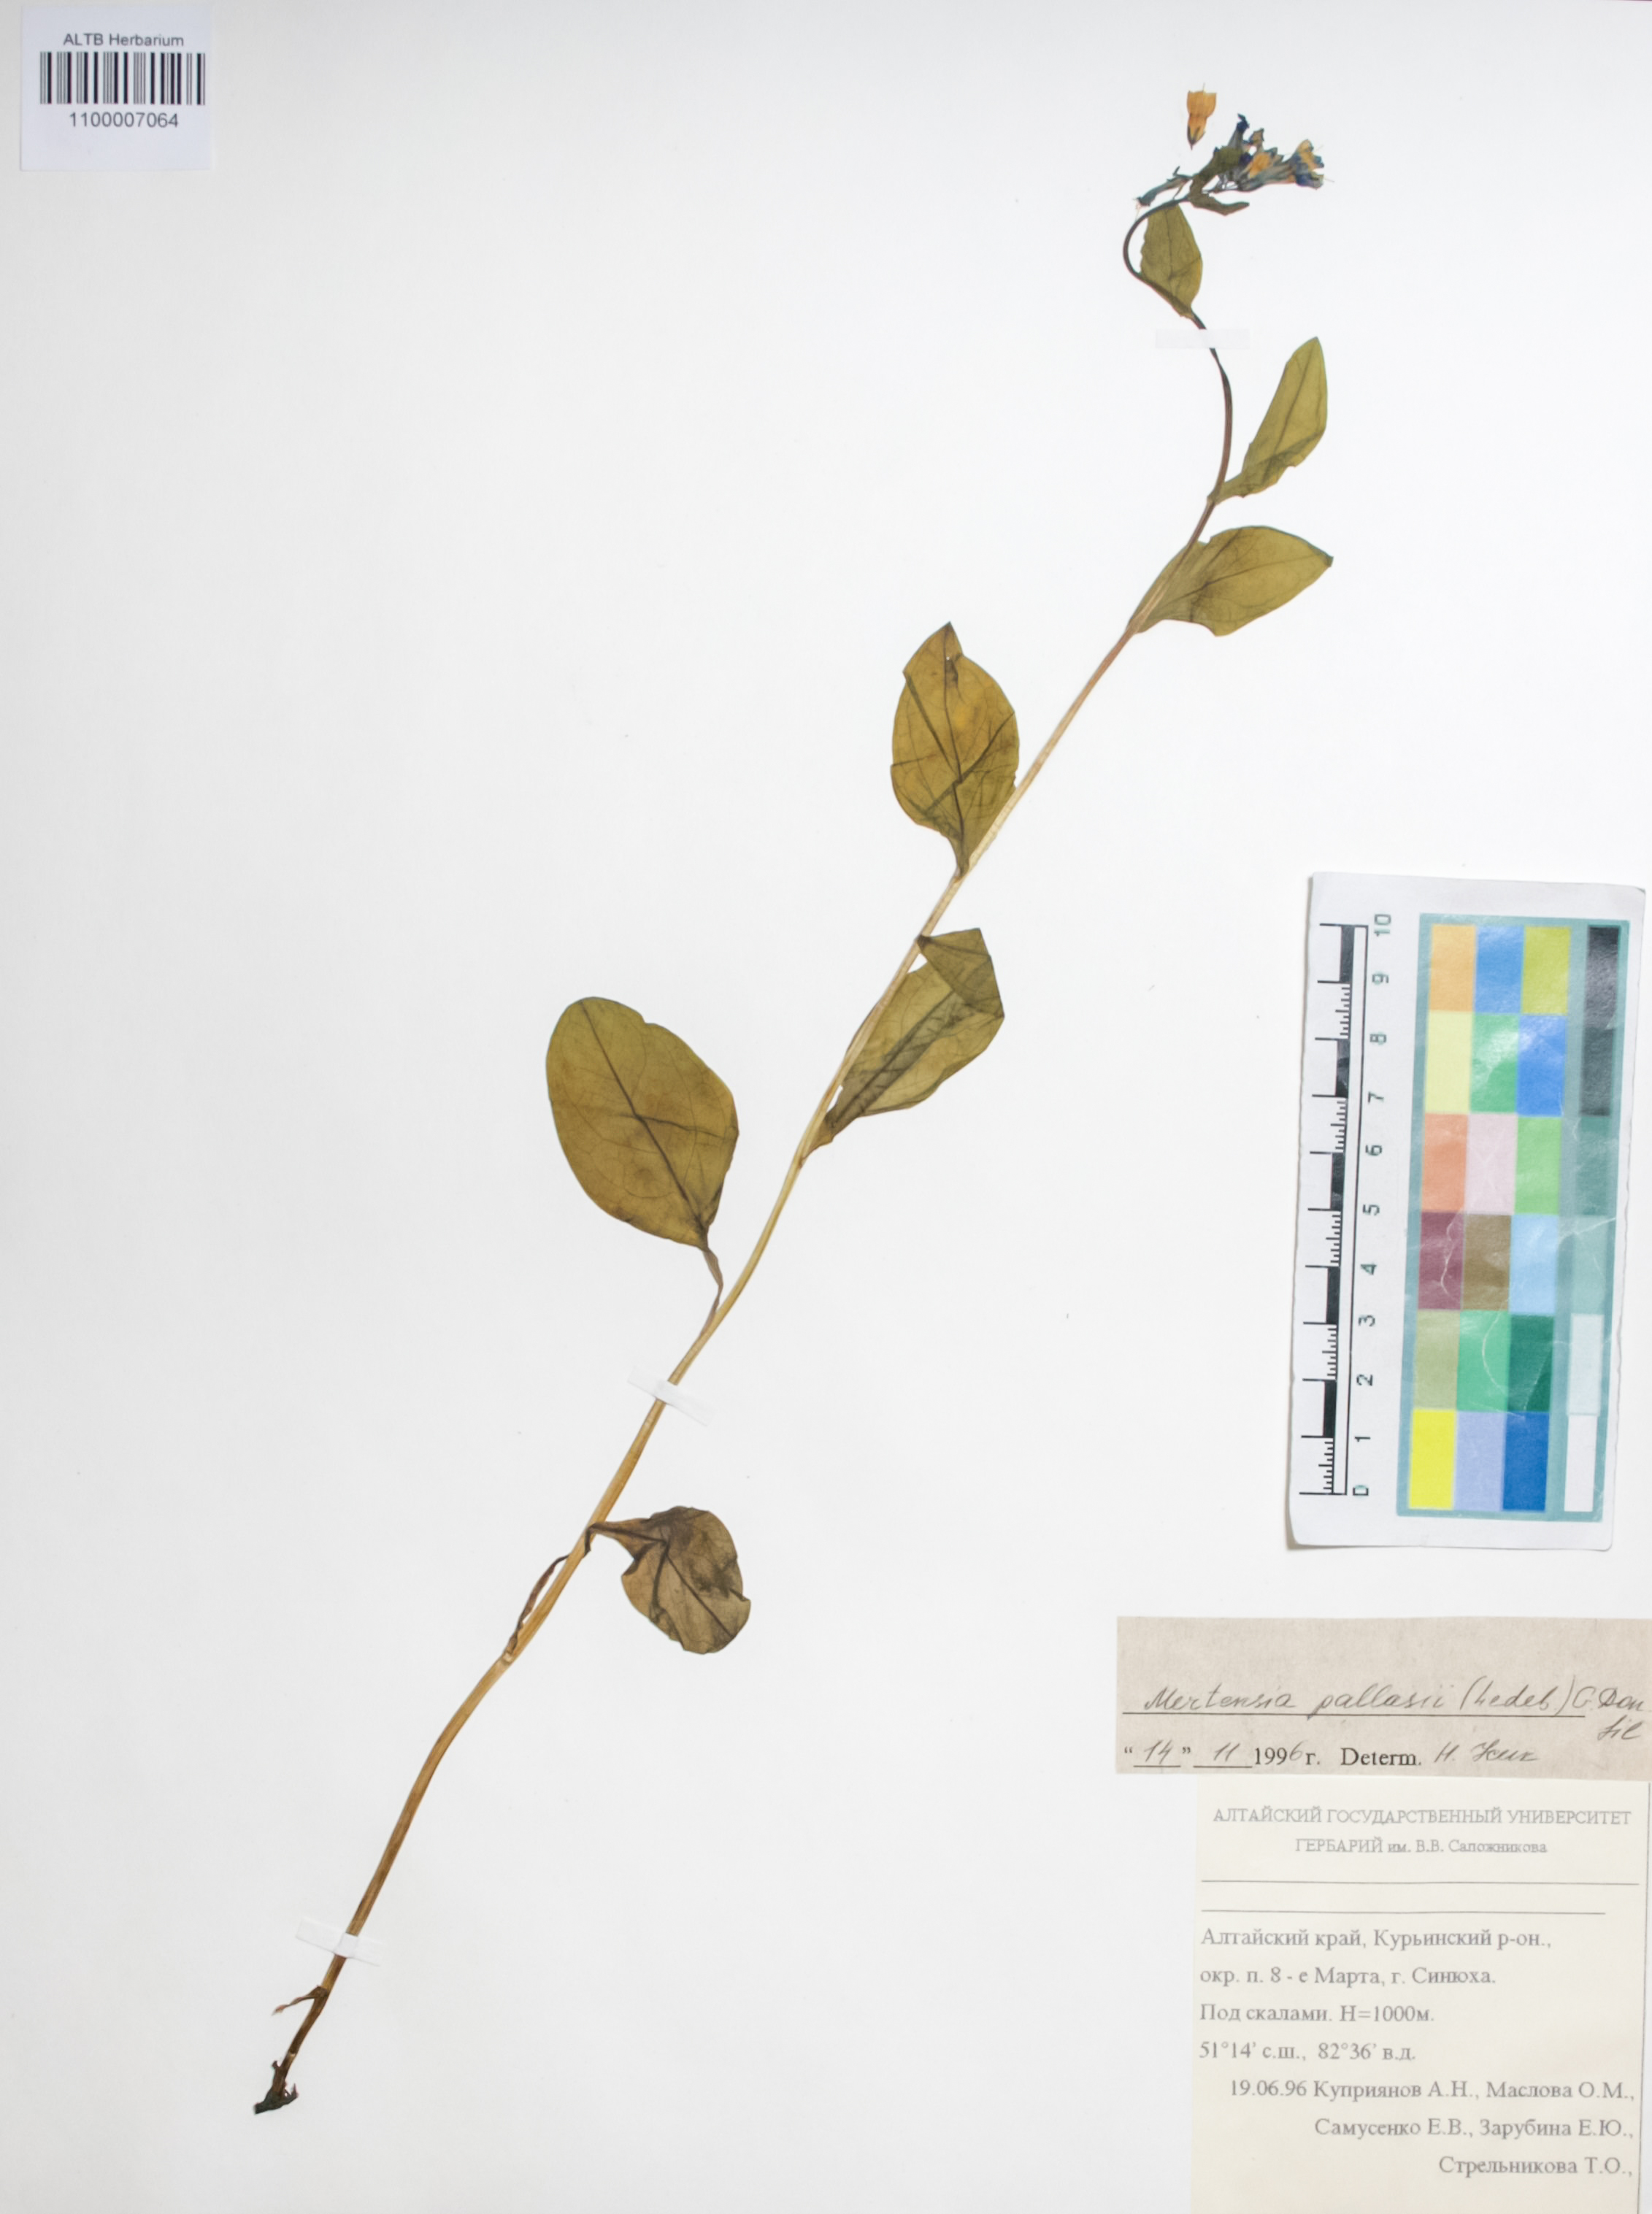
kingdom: Plantae
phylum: Tracheophyta
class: Magnoliopsida
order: Boraginales
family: Boraginaceae
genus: Mertensia
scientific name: Mertensia pallasii
